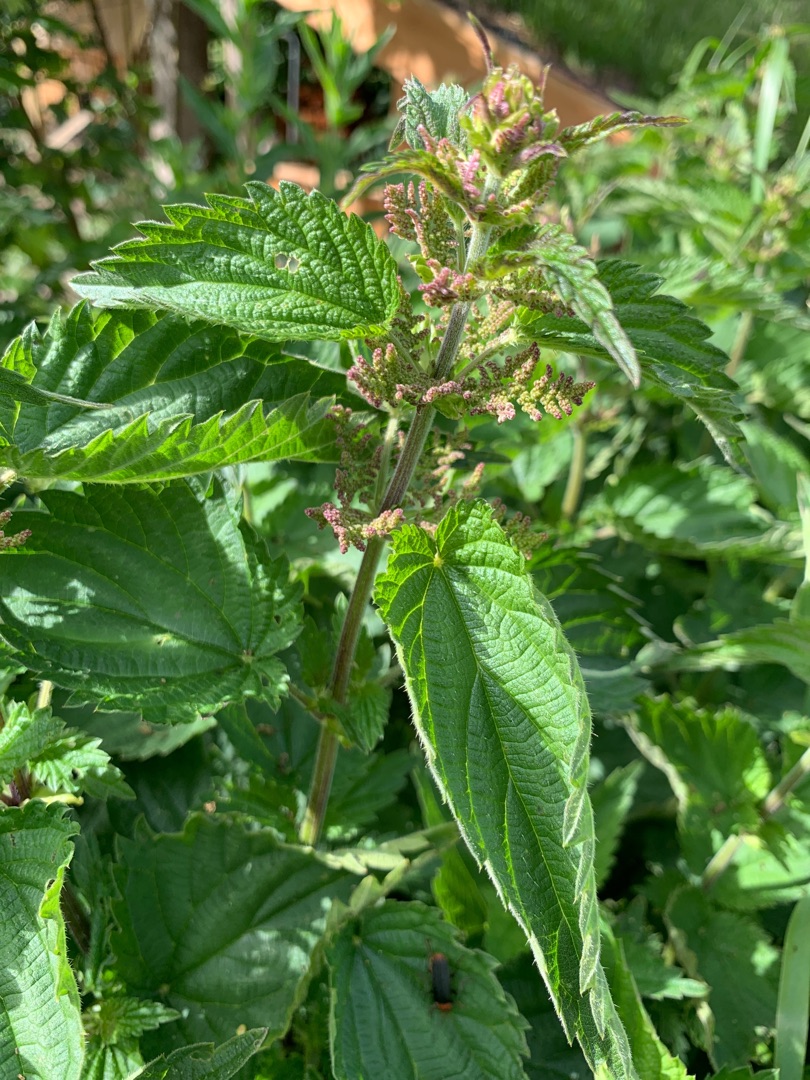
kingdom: Plantae
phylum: Tracheophyta
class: Magnoliopsida
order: Rosales
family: Urticaceae
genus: Urtica
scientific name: Urtica dioica
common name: Stor nælde
